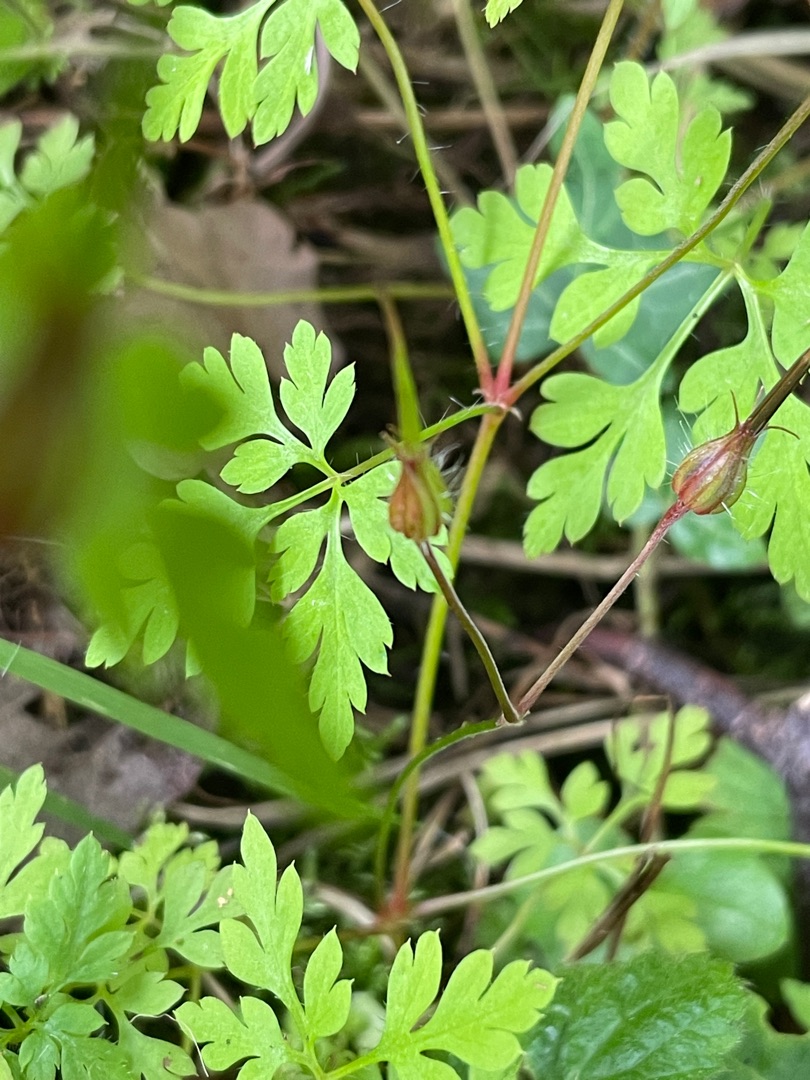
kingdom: Plantae
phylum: Tracheophyta
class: Magnoliopsida
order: Geraniales
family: Geraniaceae
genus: Geranium
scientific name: Geranium robertianum
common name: Stinkende storkenæb
